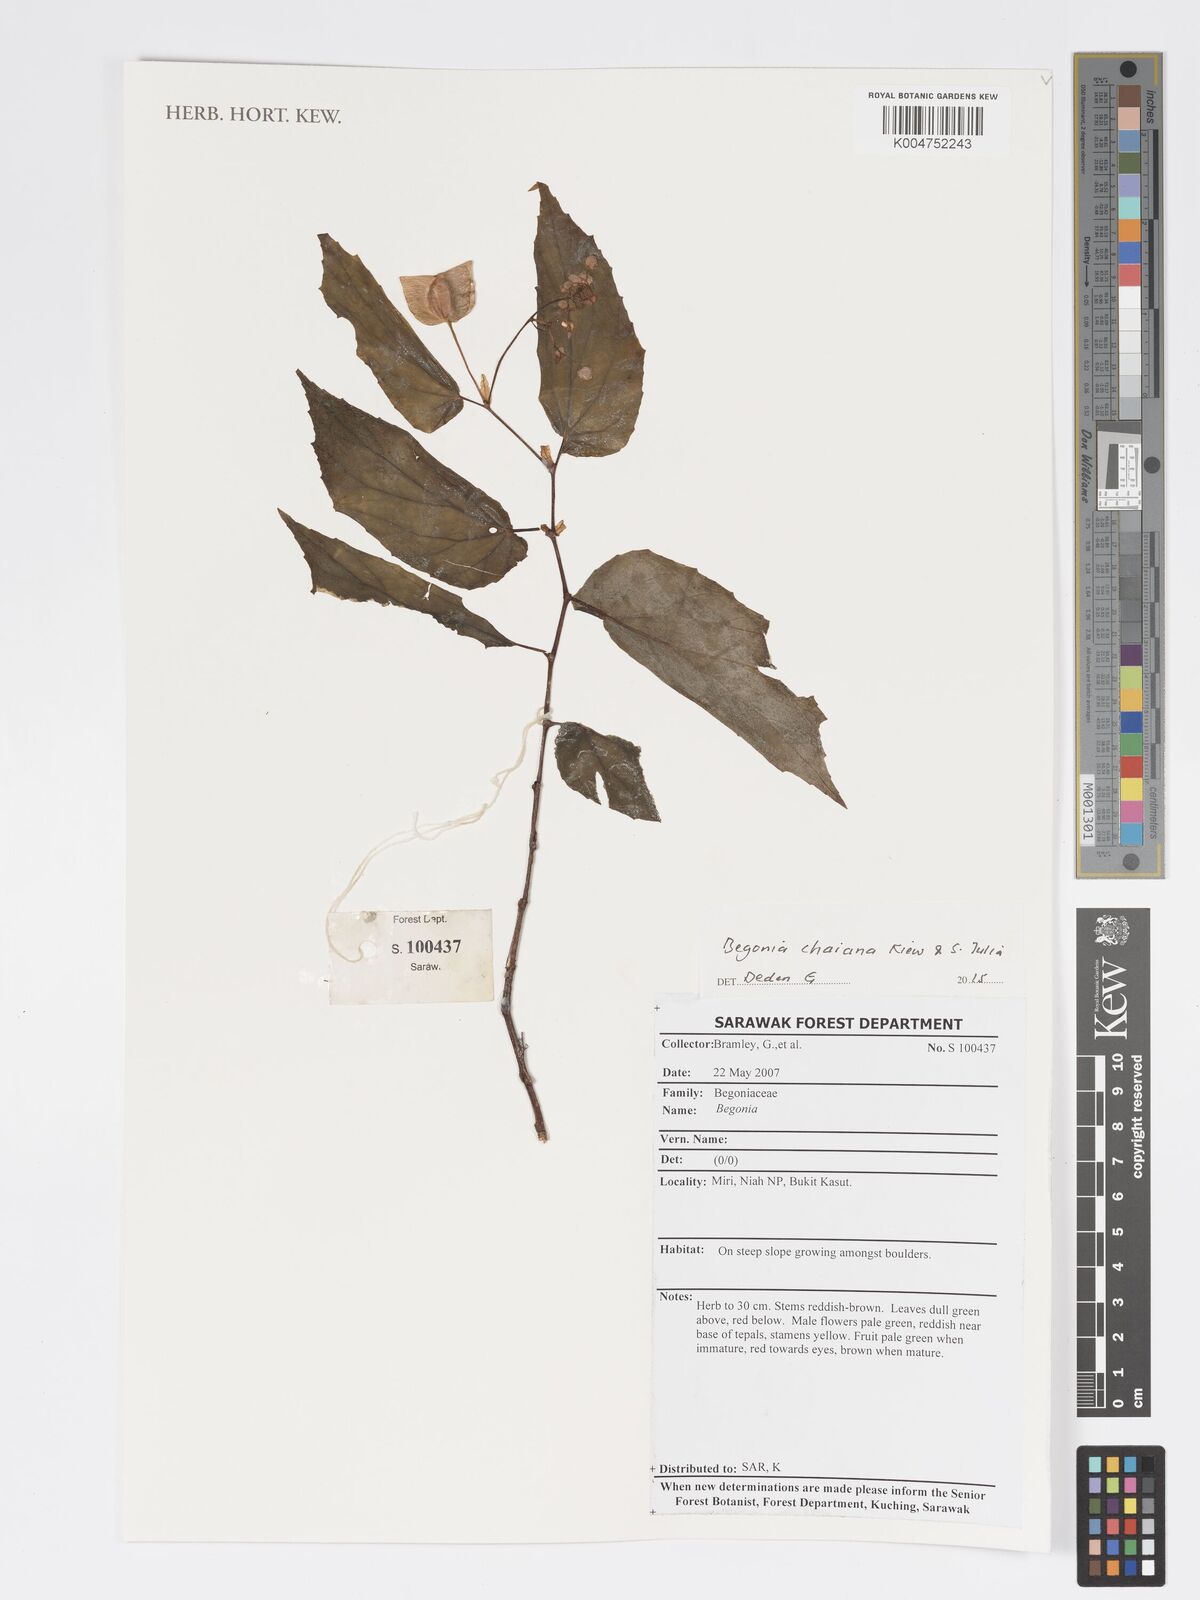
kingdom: Plantae
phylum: Tracheophyta
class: Magnoliopsida
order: Cucurbitales
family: Begoniaceae
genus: Begonia
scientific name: Begonia chaiana
